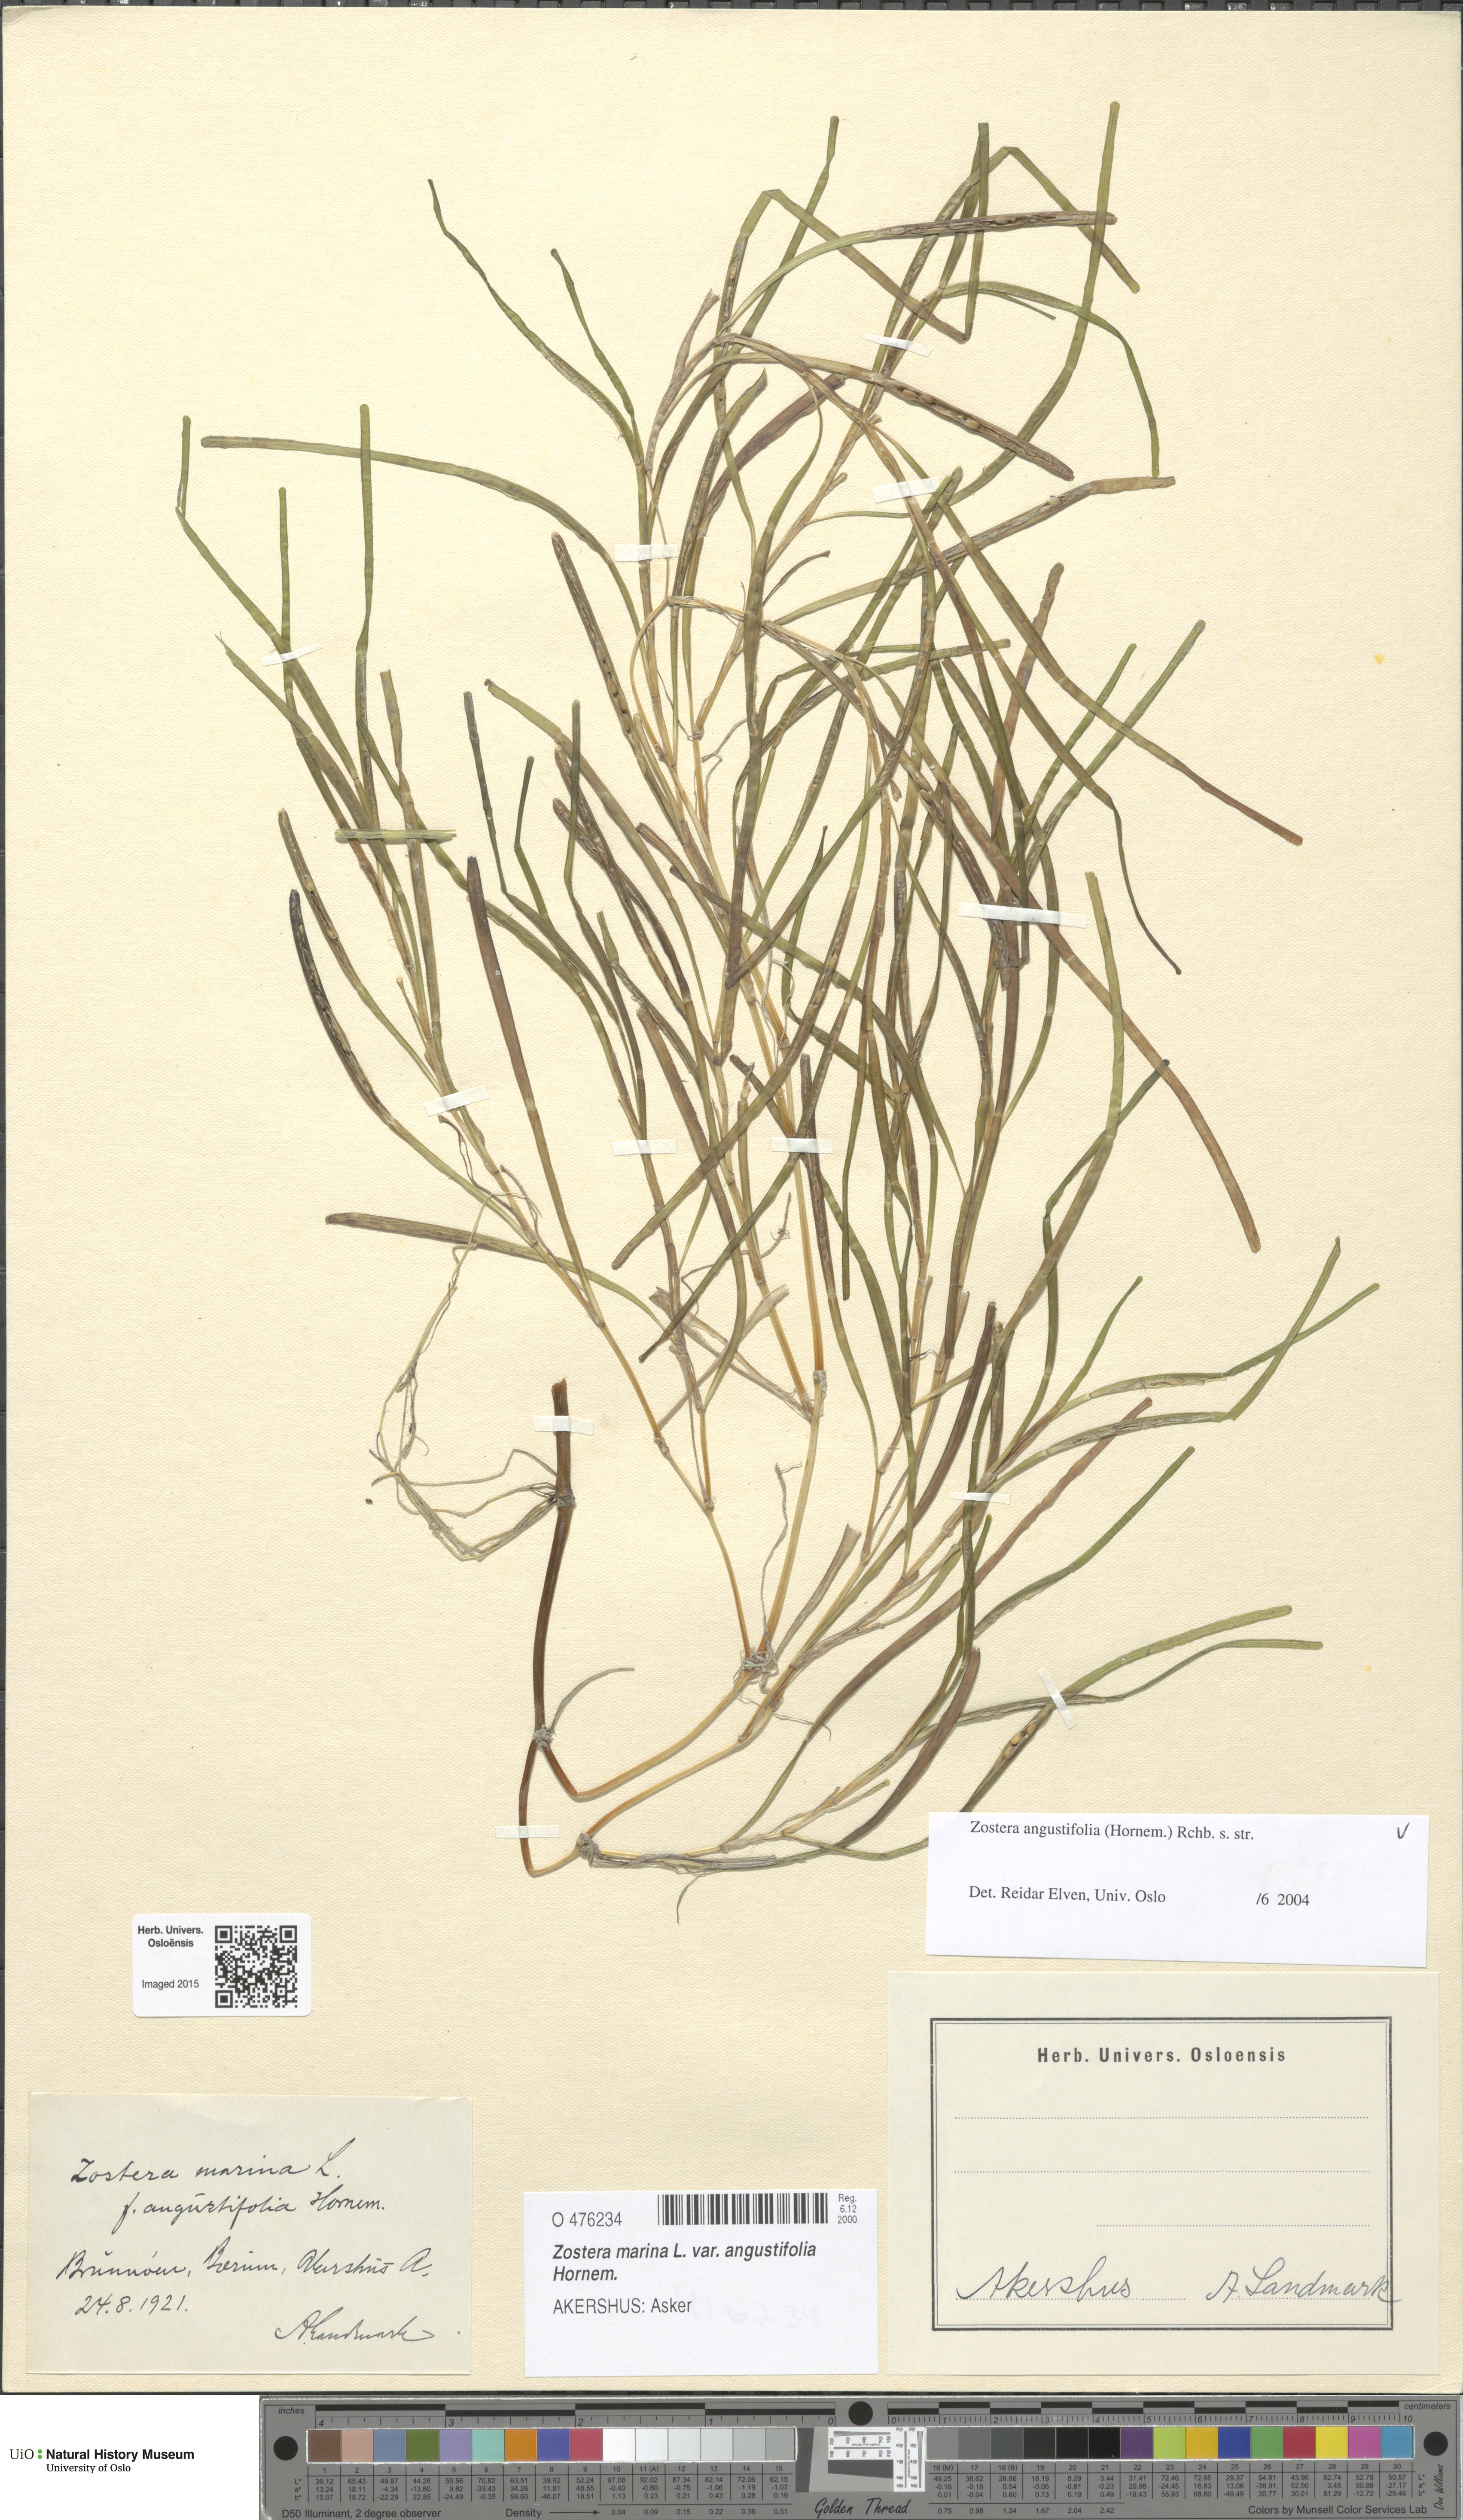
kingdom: Plantae
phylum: Tracheophyta
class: Liliopsida
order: Alismatales
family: Zosteraceae
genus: Zostera
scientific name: Zostera angustifolia
